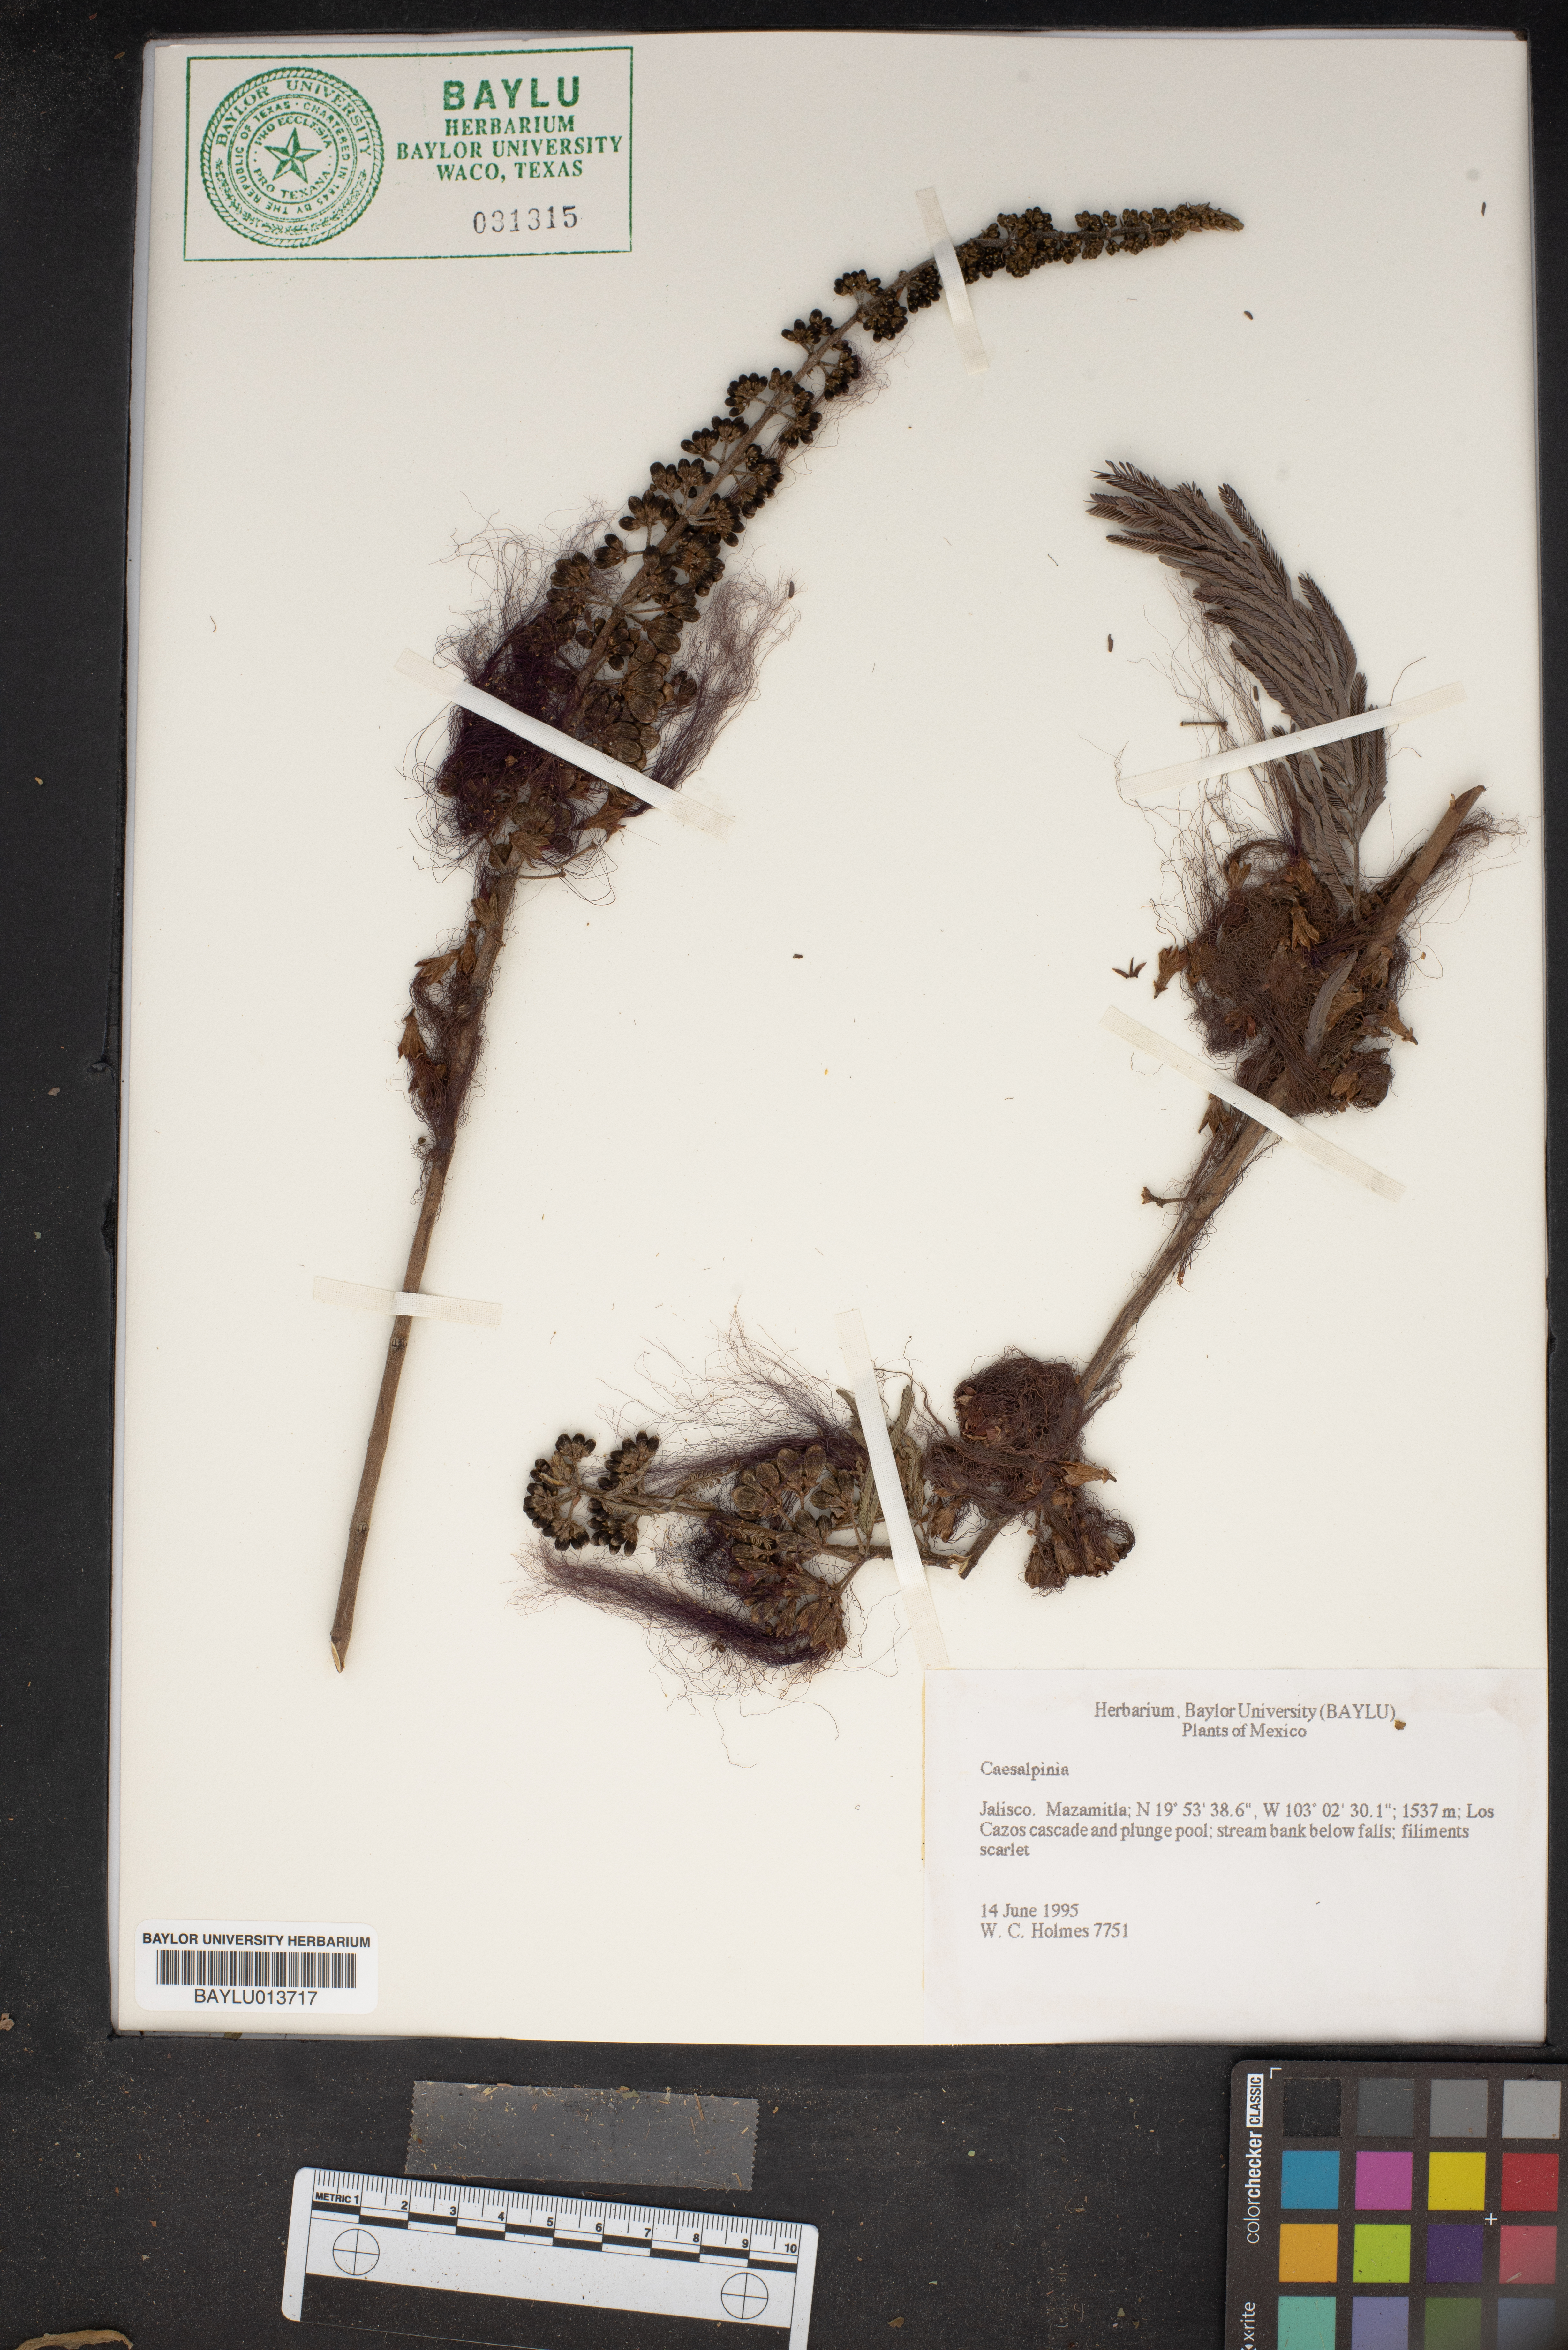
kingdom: Plantae
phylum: Tracheophyta
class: Magnoliopsida
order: Fabales
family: Fabaceae
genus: Caesalpinia
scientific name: Caesalpinia
